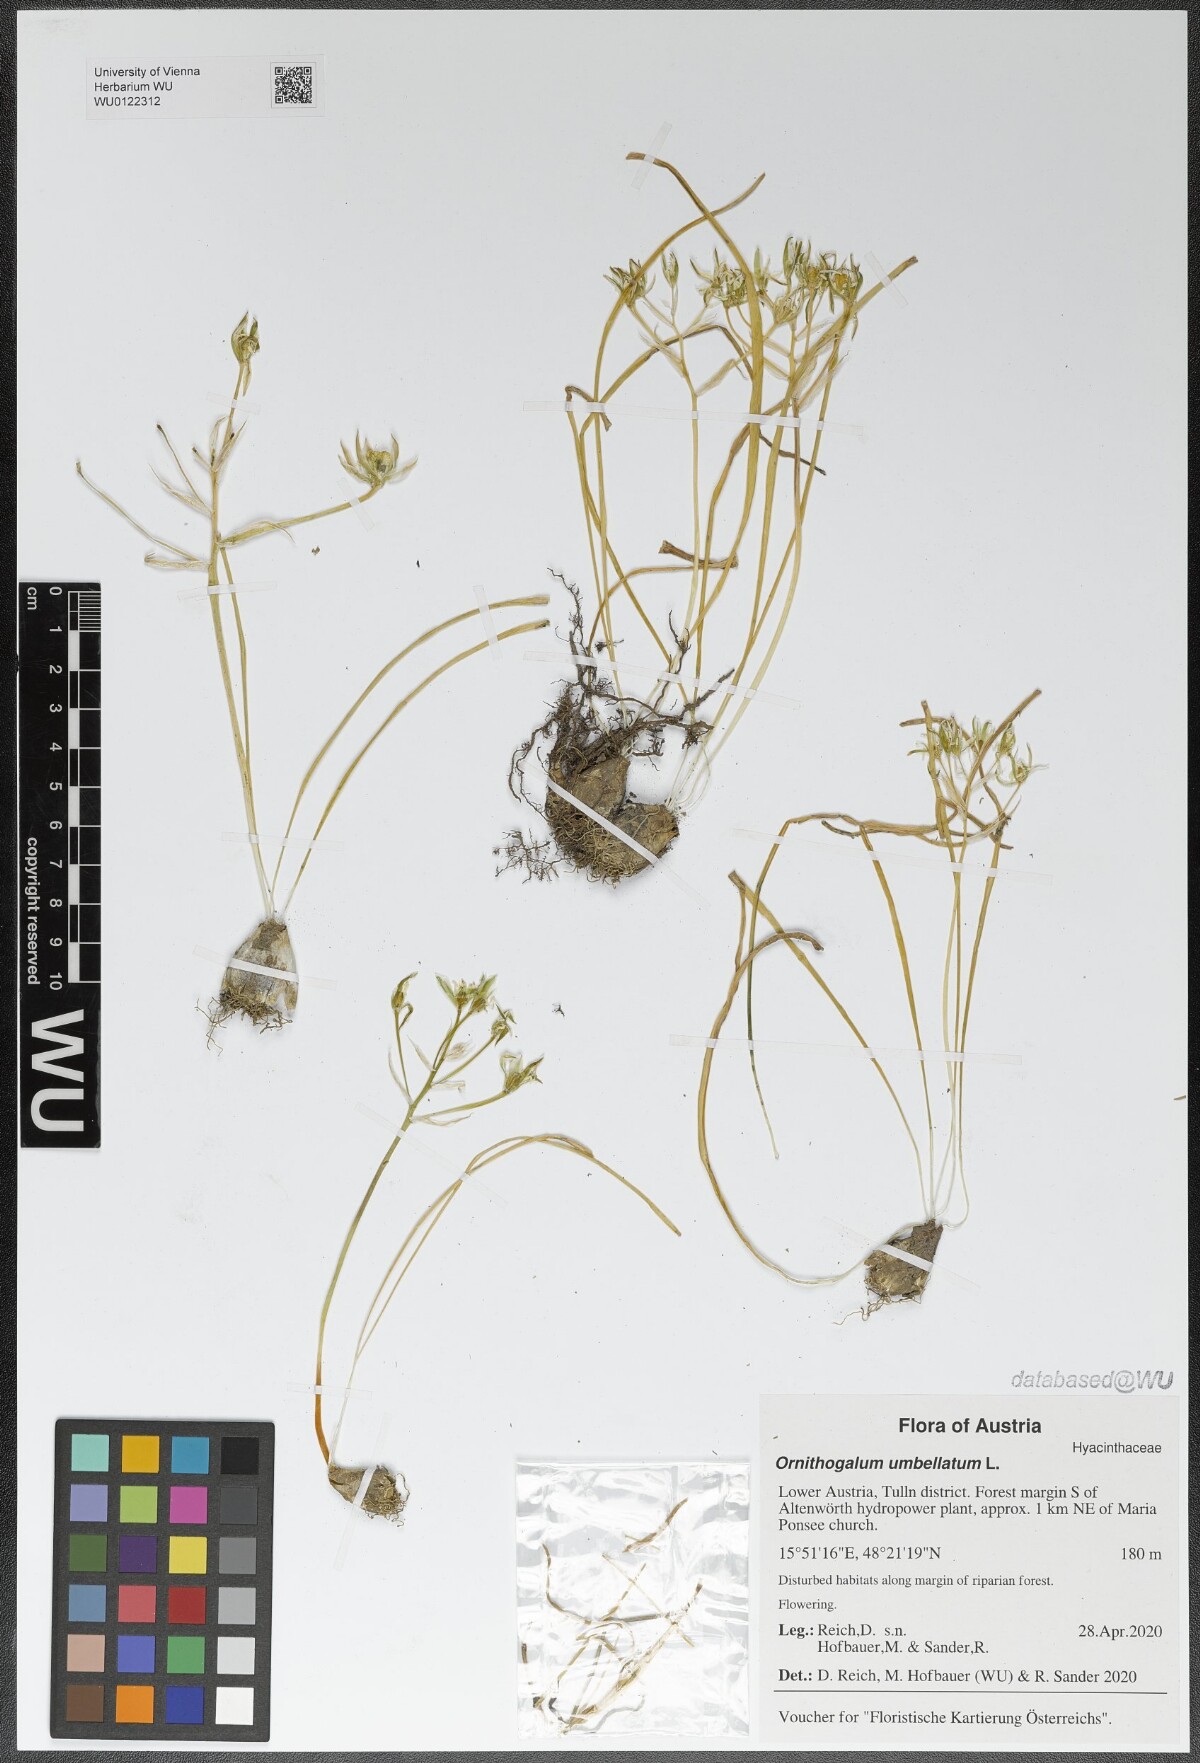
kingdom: Plantae
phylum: Tracheophyta
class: Liliopsida
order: Asparagales
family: Asparagaceae
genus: Ornithogalum
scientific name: Ornithogalum umbellatum
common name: Garden star-of-bethlehem
